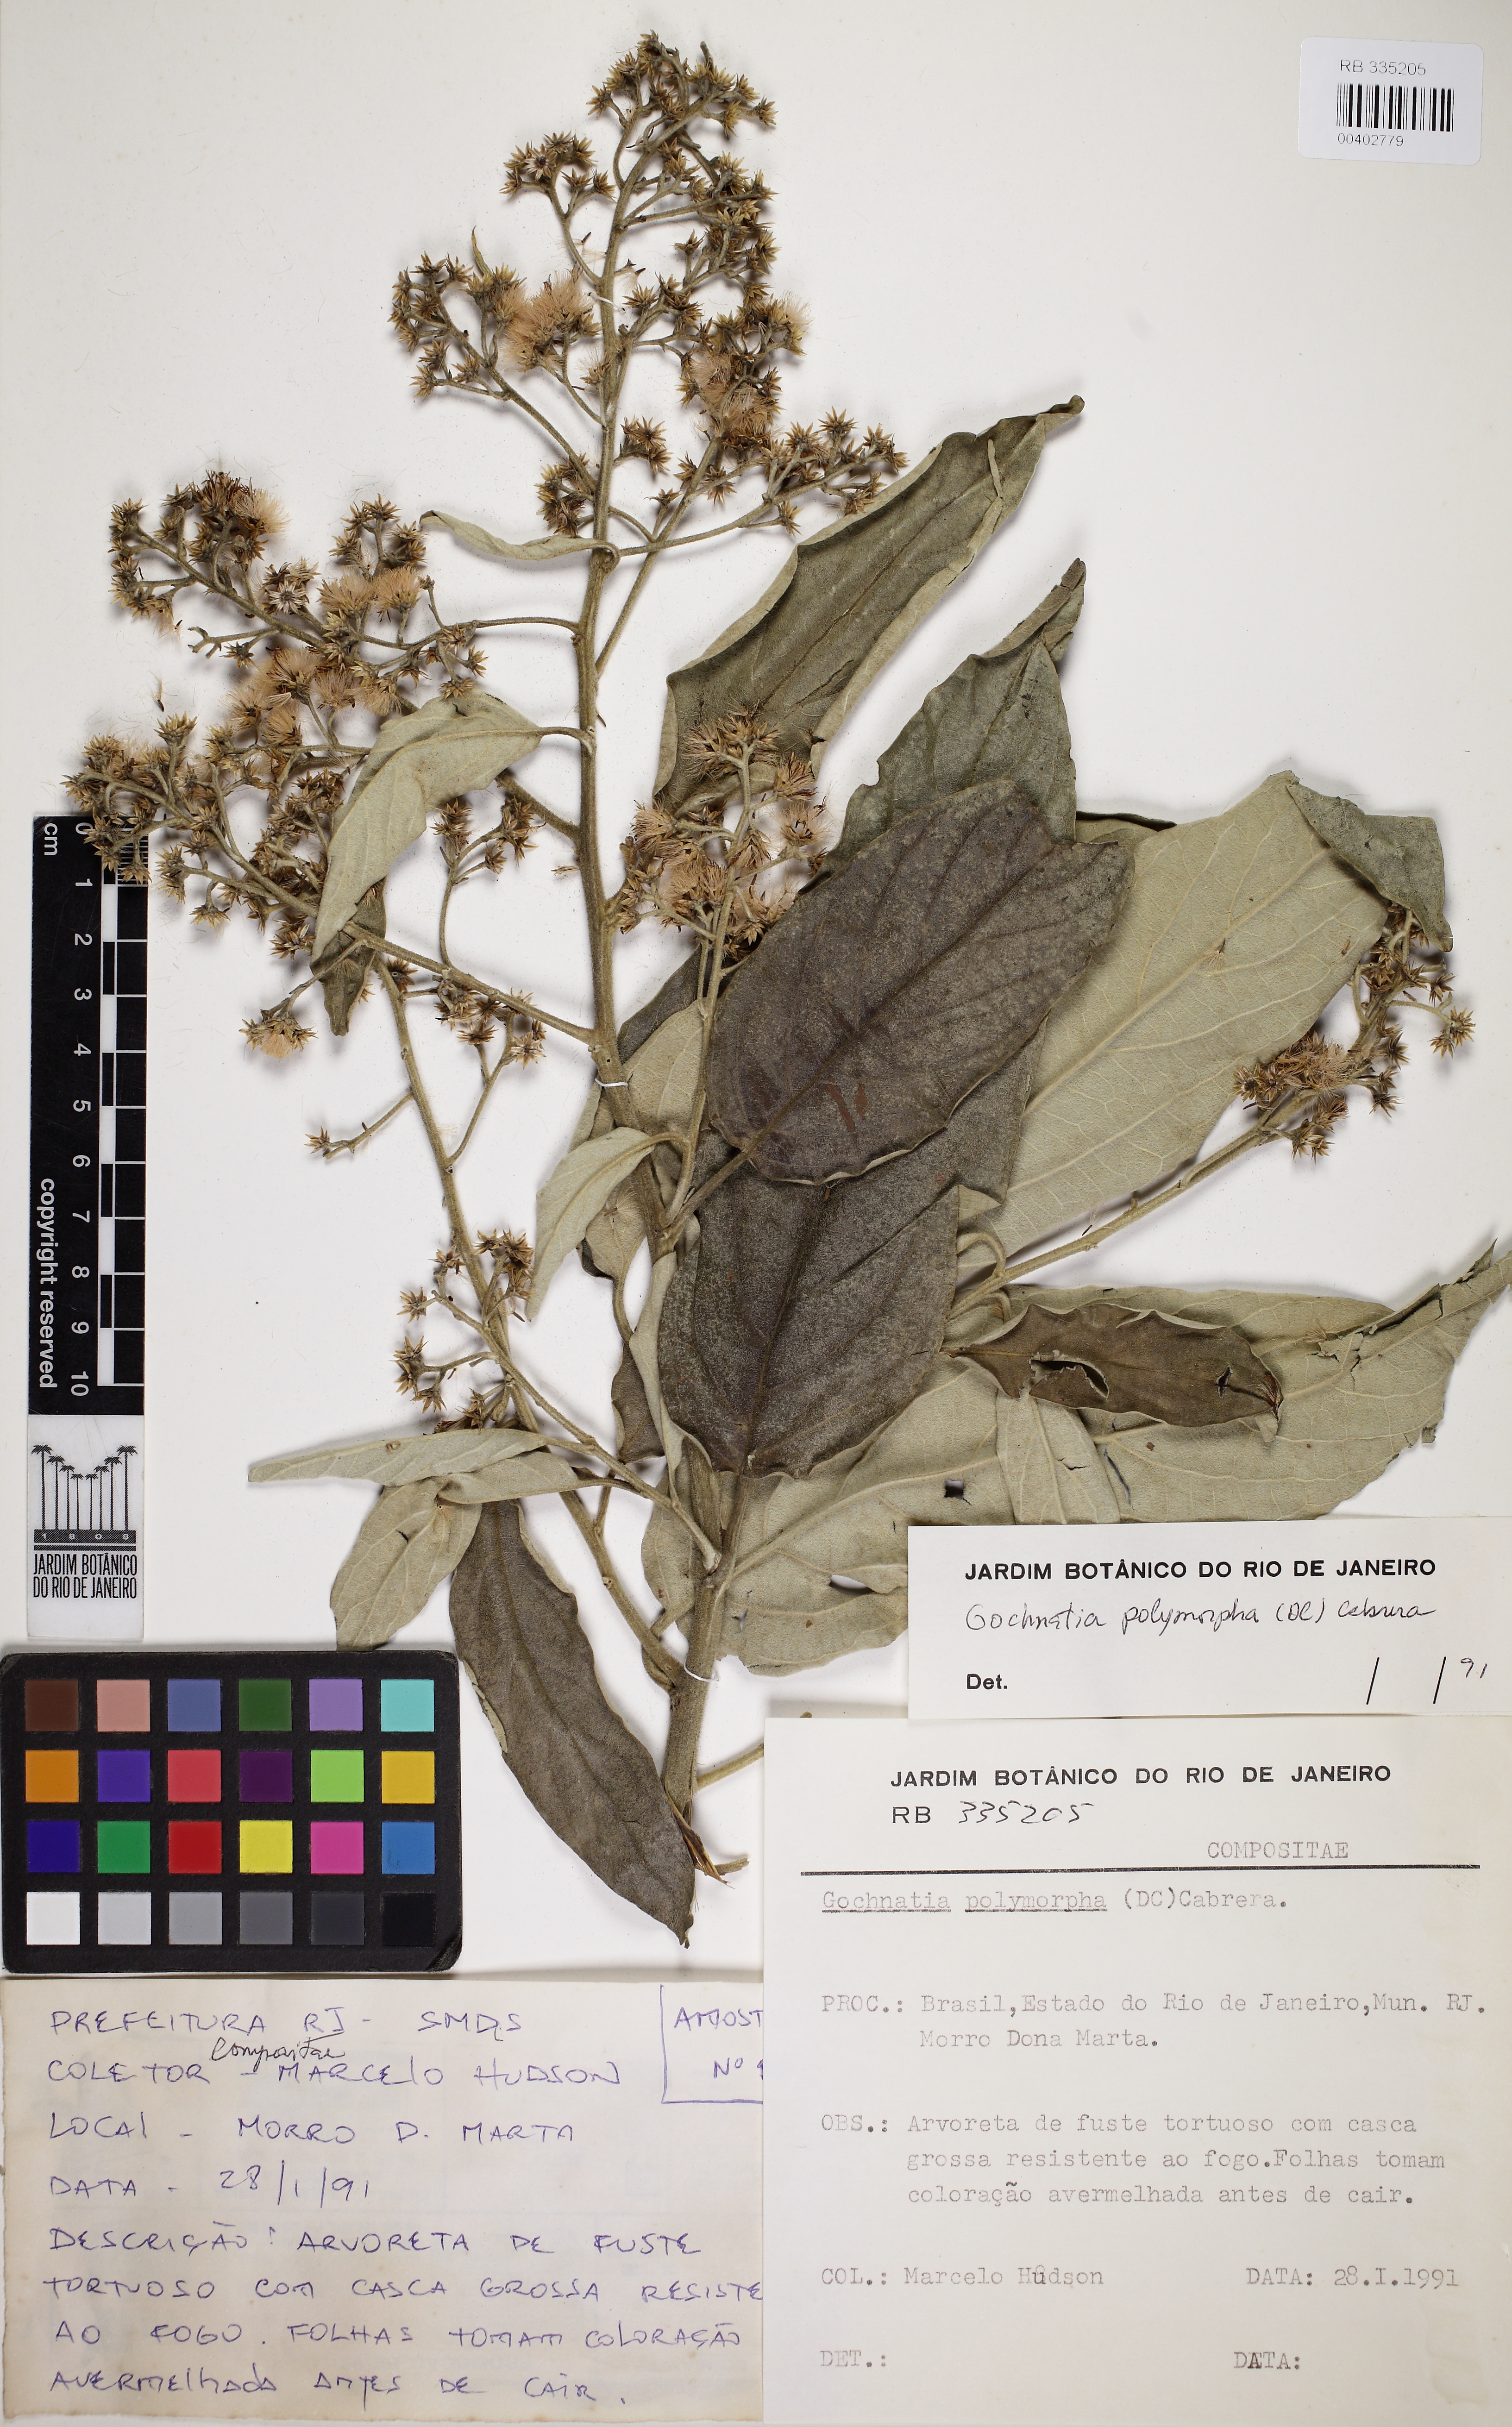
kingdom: Plantae
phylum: Tracheophyta
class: Magnoliopsida
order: Asterales
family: Asteraceae
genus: Moquiniastrum
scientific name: Moquiniastrum polymorphum
